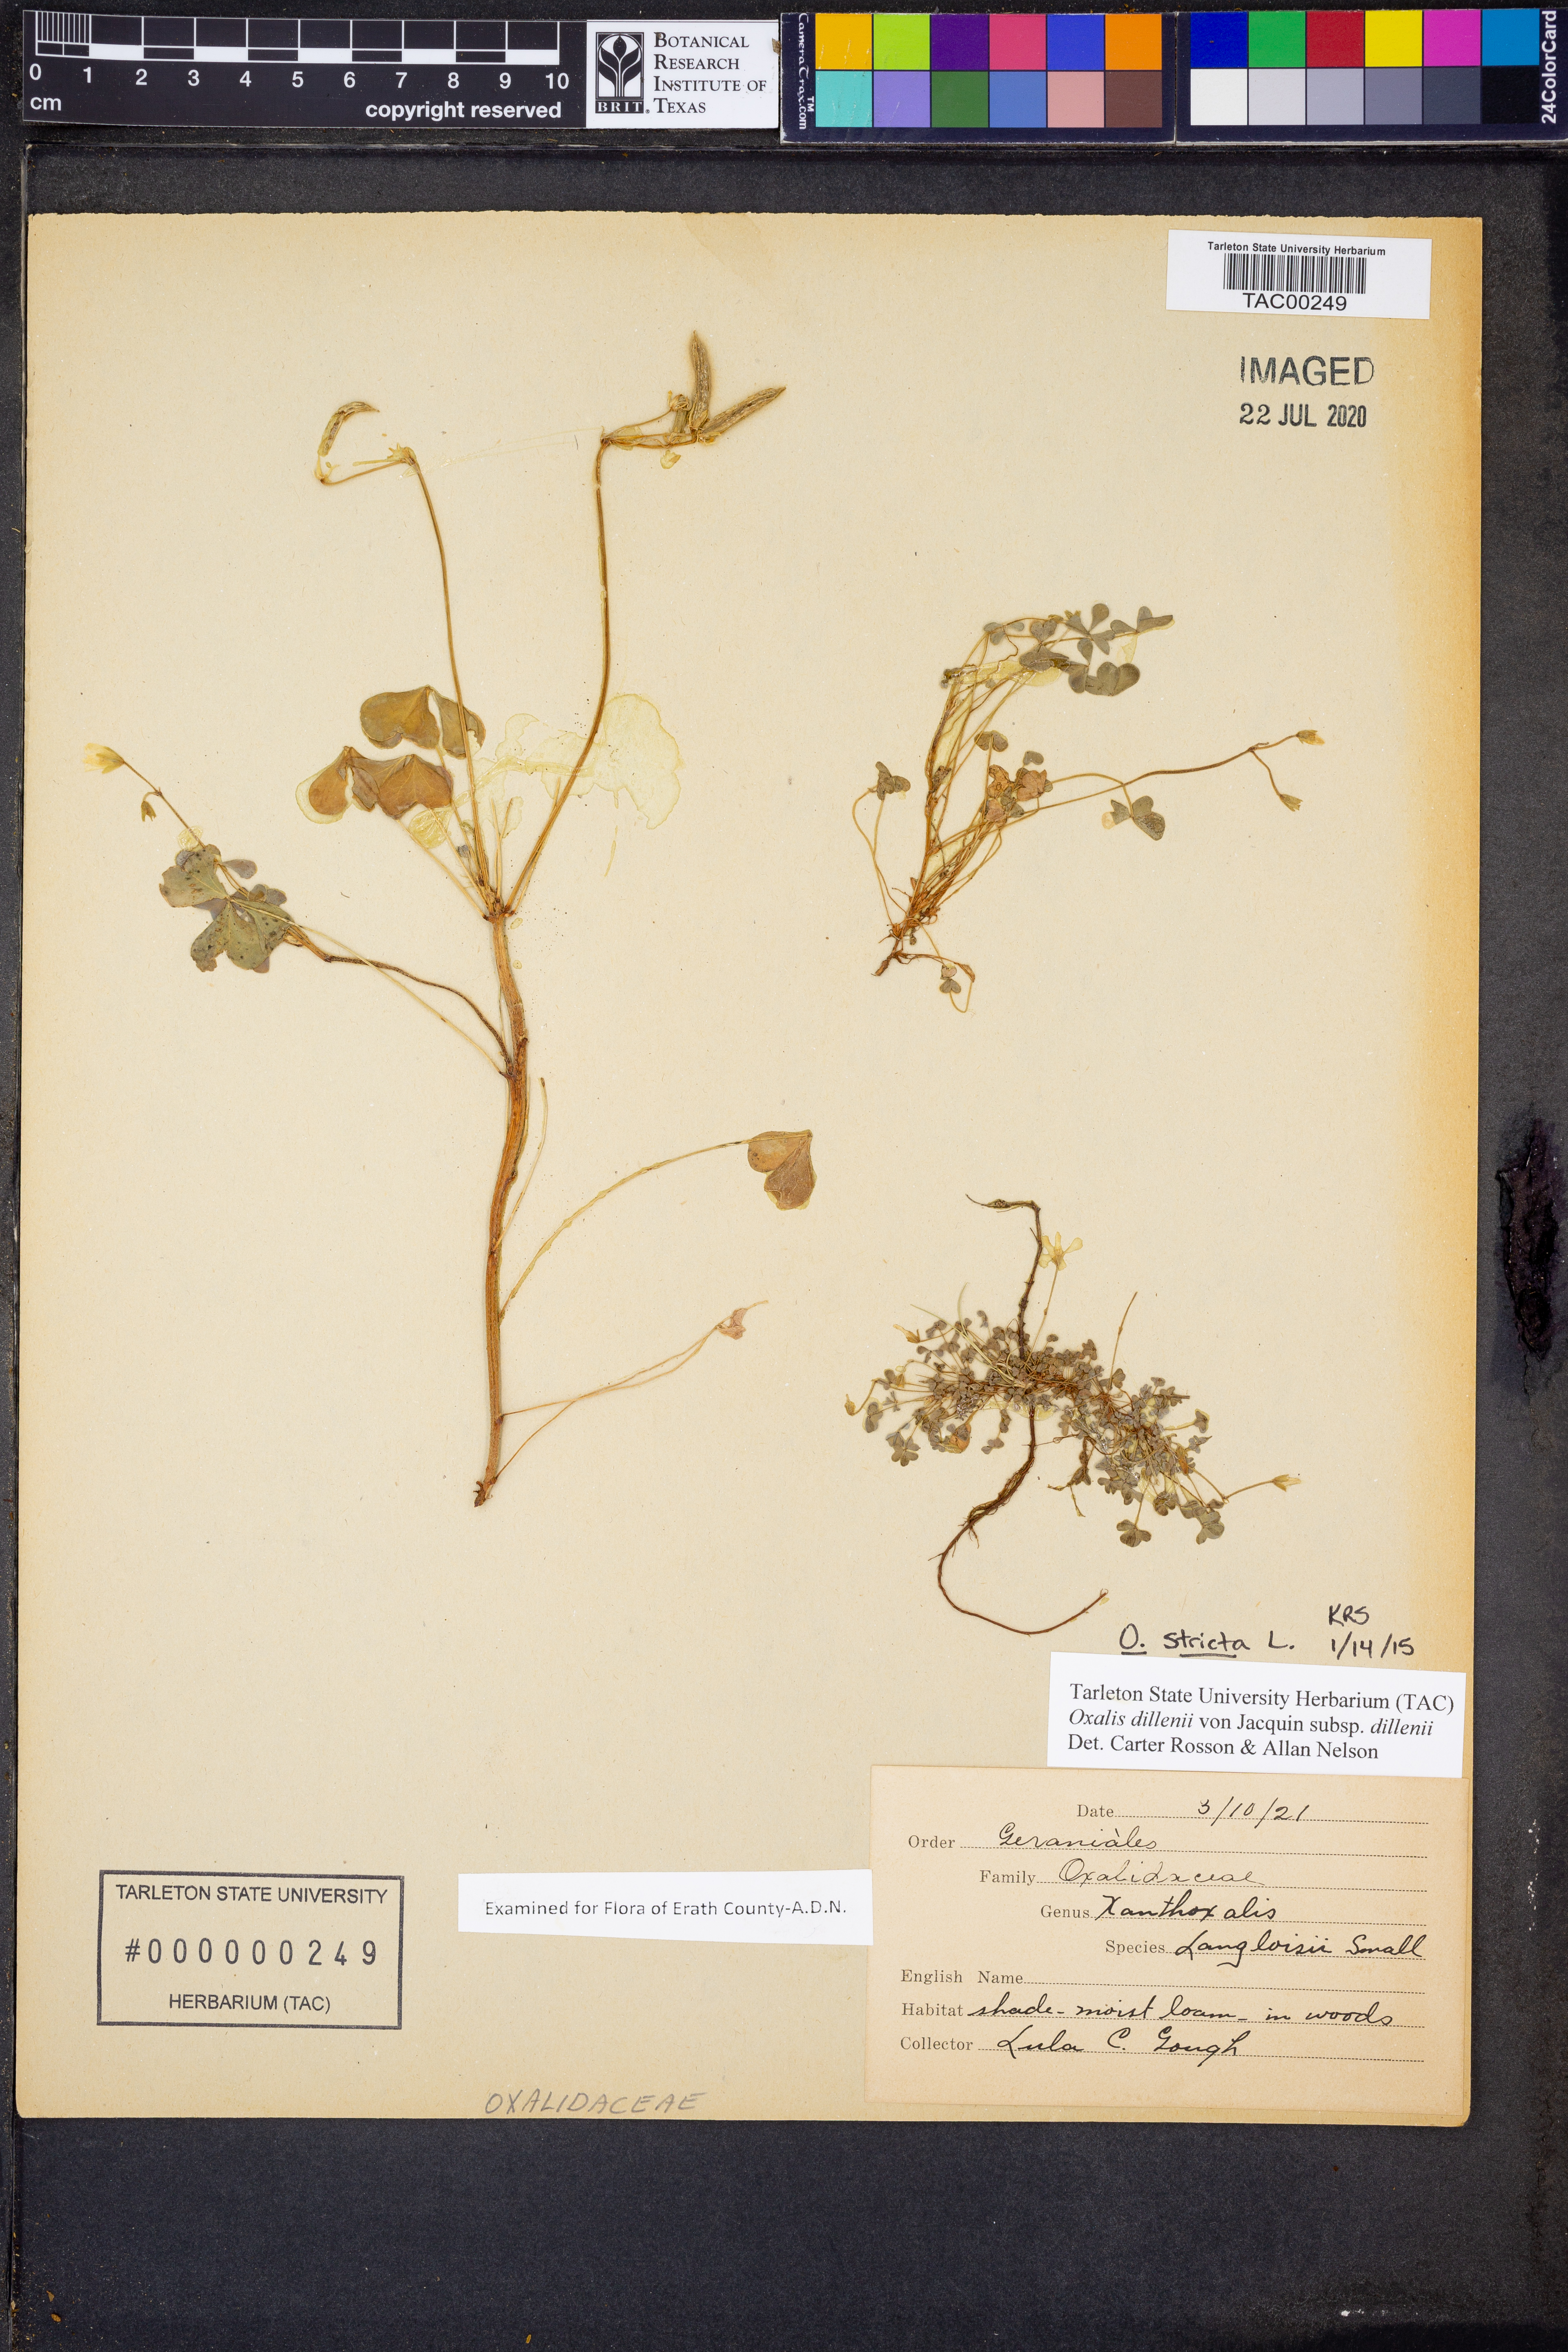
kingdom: Plantae
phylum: Tracheophyta
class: Magnoliopsida
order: Oxalidales
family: Oxalidaceae
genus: Oxalis
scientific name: Oxalis stricta
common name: Upright yellow-sorrel
